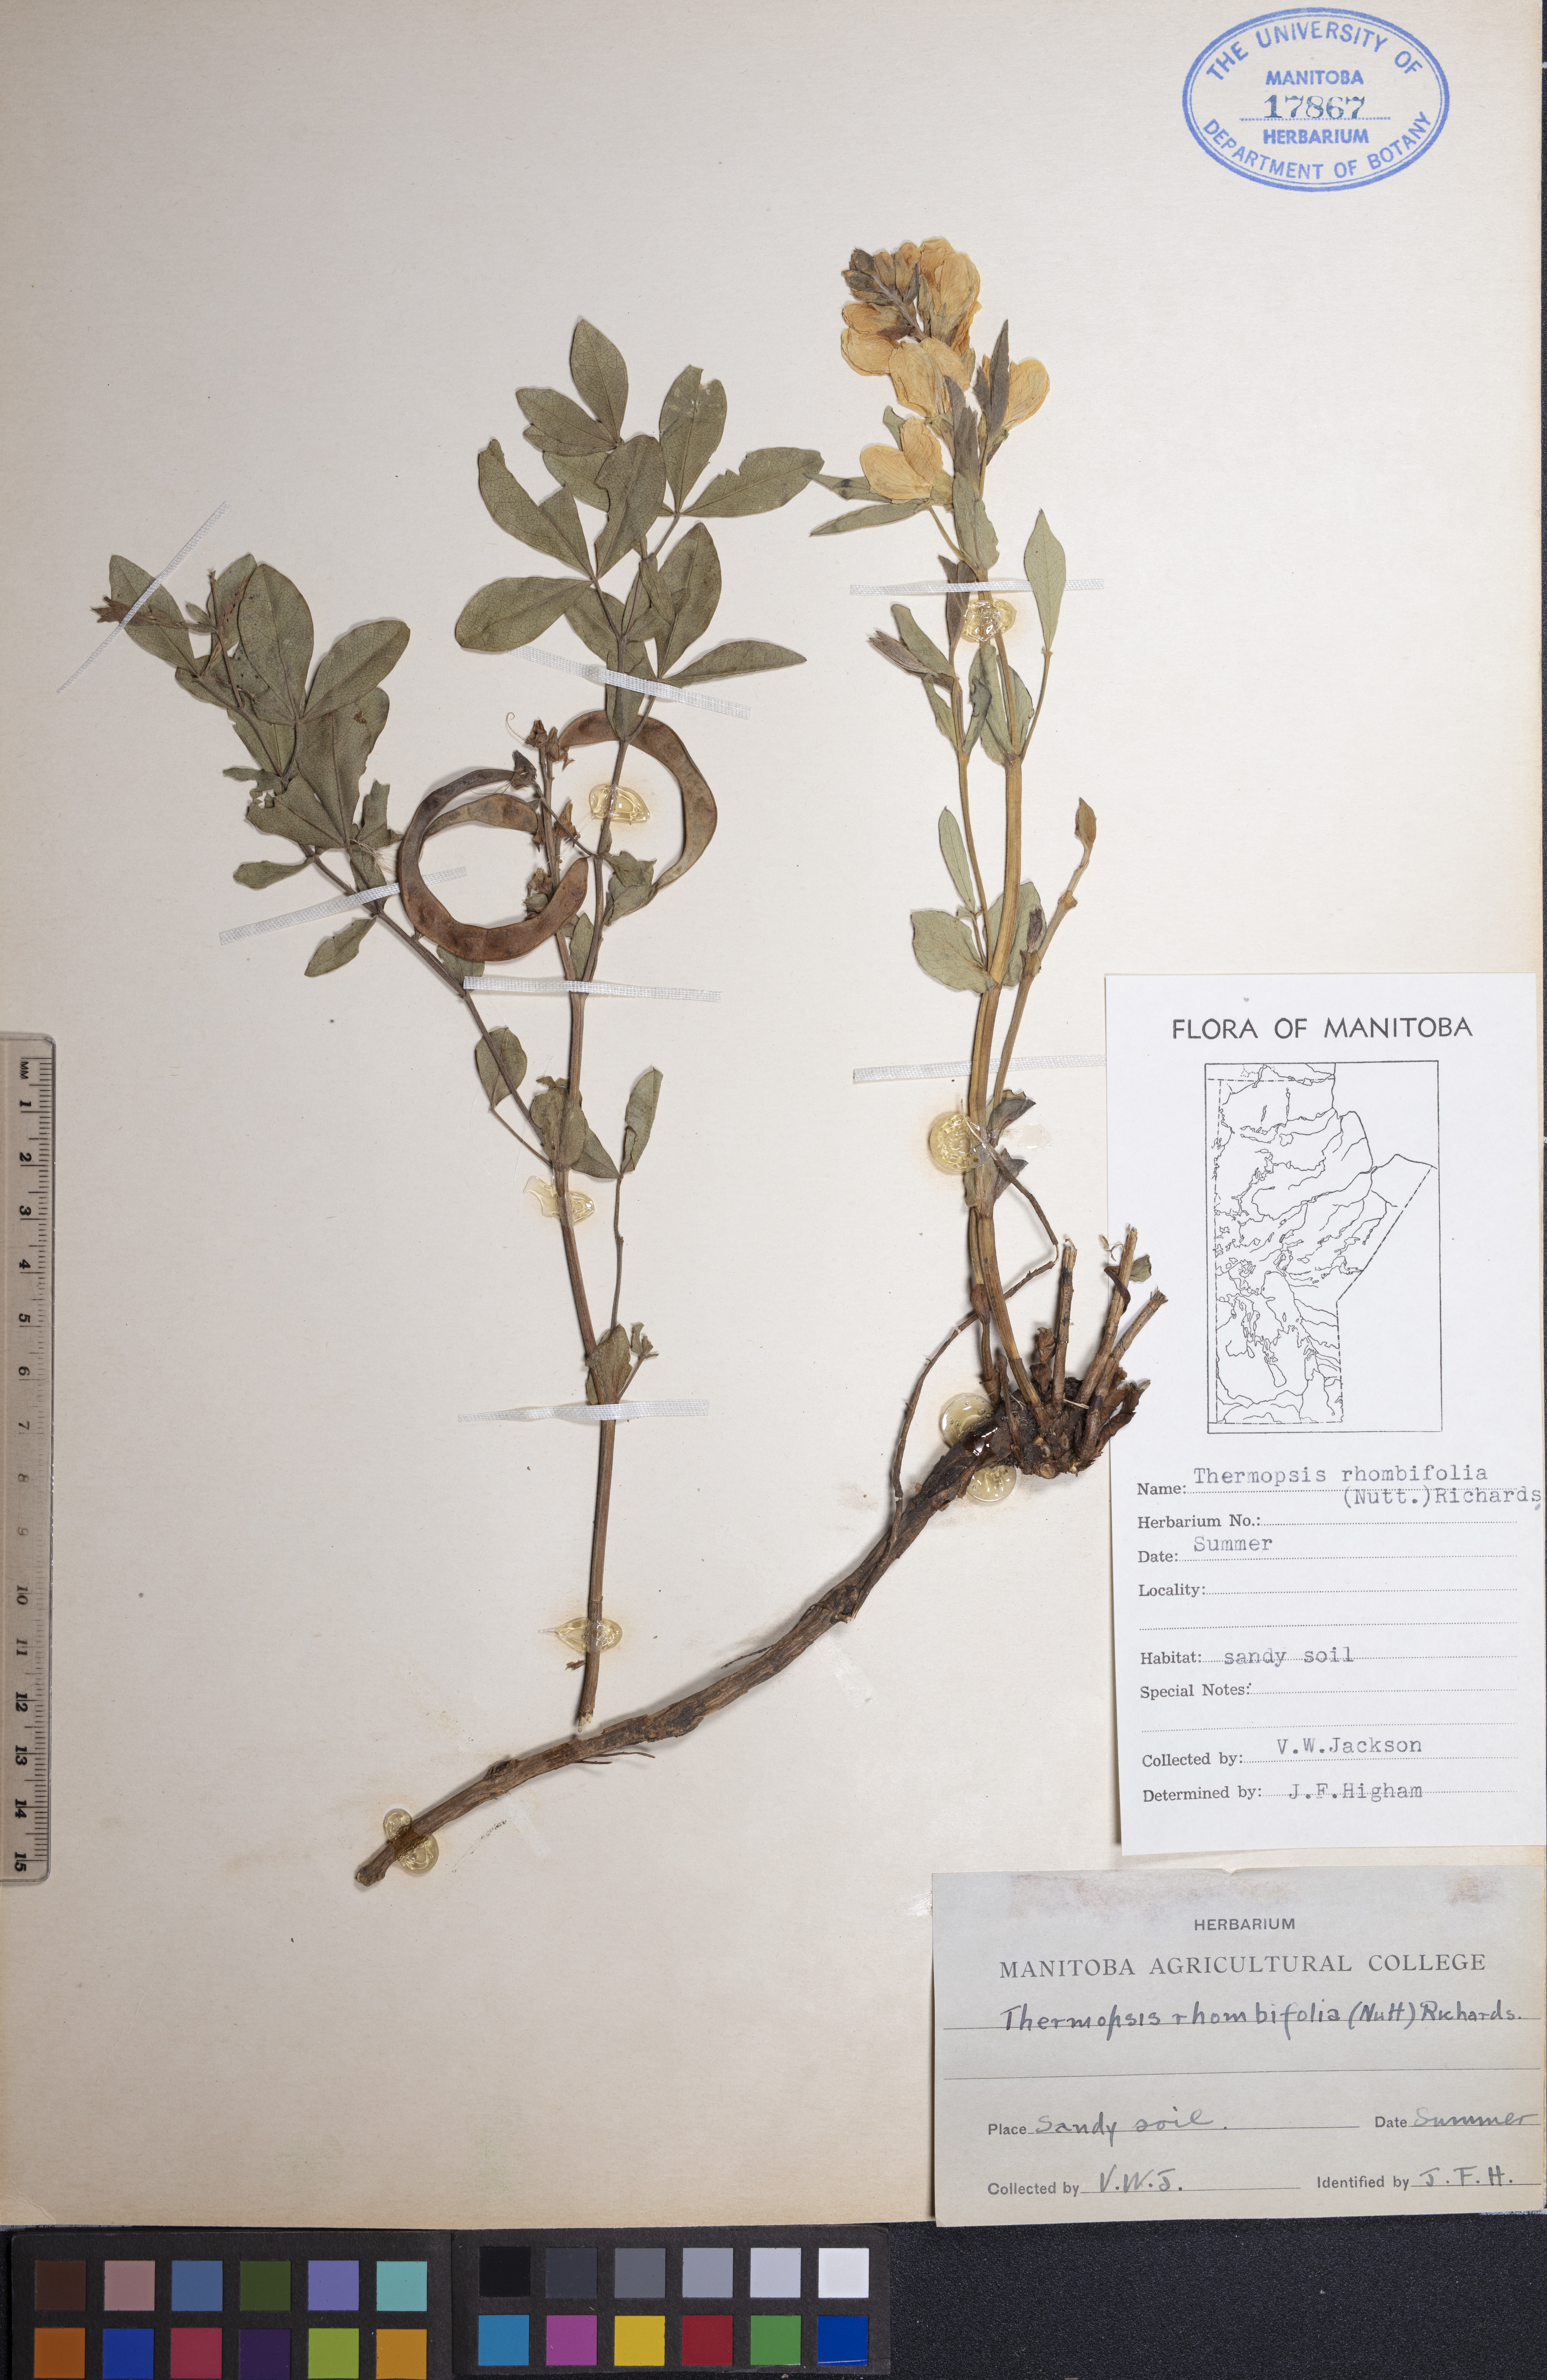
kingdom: Plantae
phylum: Tracheophyta
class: Magnoliopsida
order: Fabales
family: Fabaceae
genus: Thermopsis
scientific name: Thermopsis rhombifolia
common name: Circle-pod-pea
